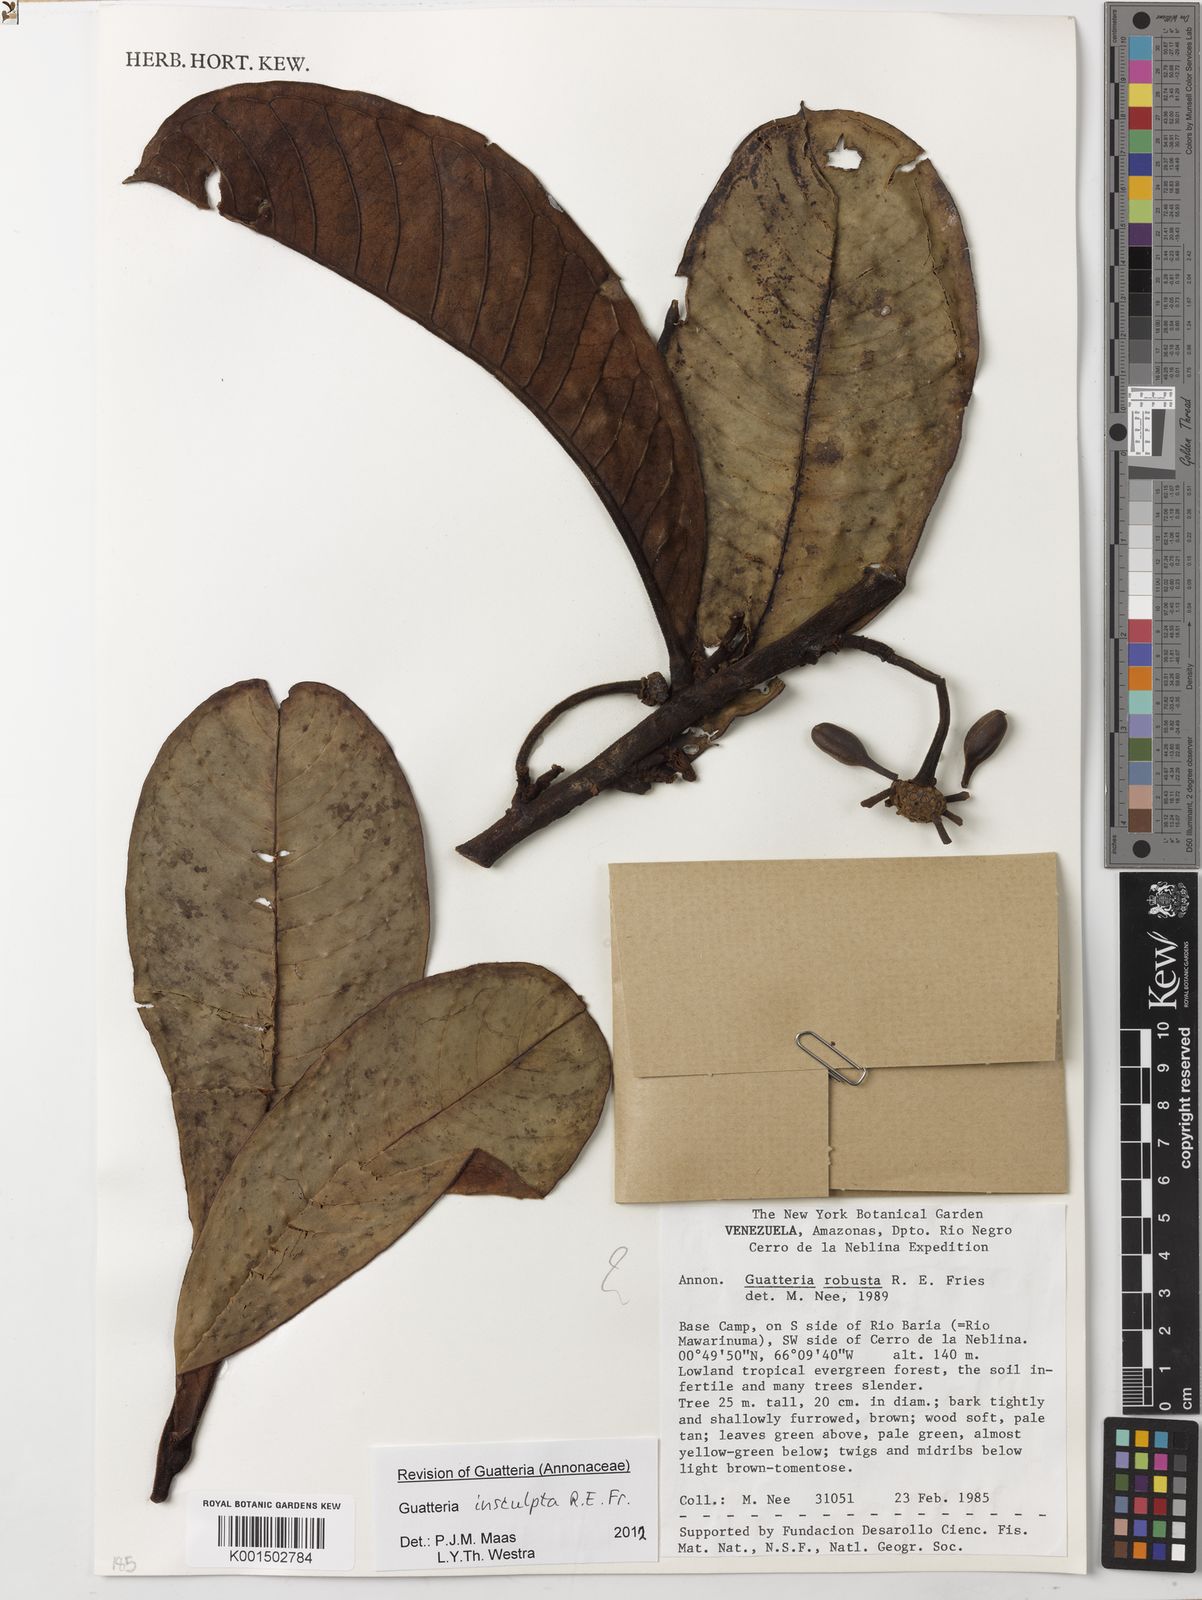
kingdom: Plantae
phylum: Tracheophyta
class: Magnoliopsida
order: Magnoliales
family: Annonaceae
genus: Guatteria
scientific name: Guatteria insculpta
